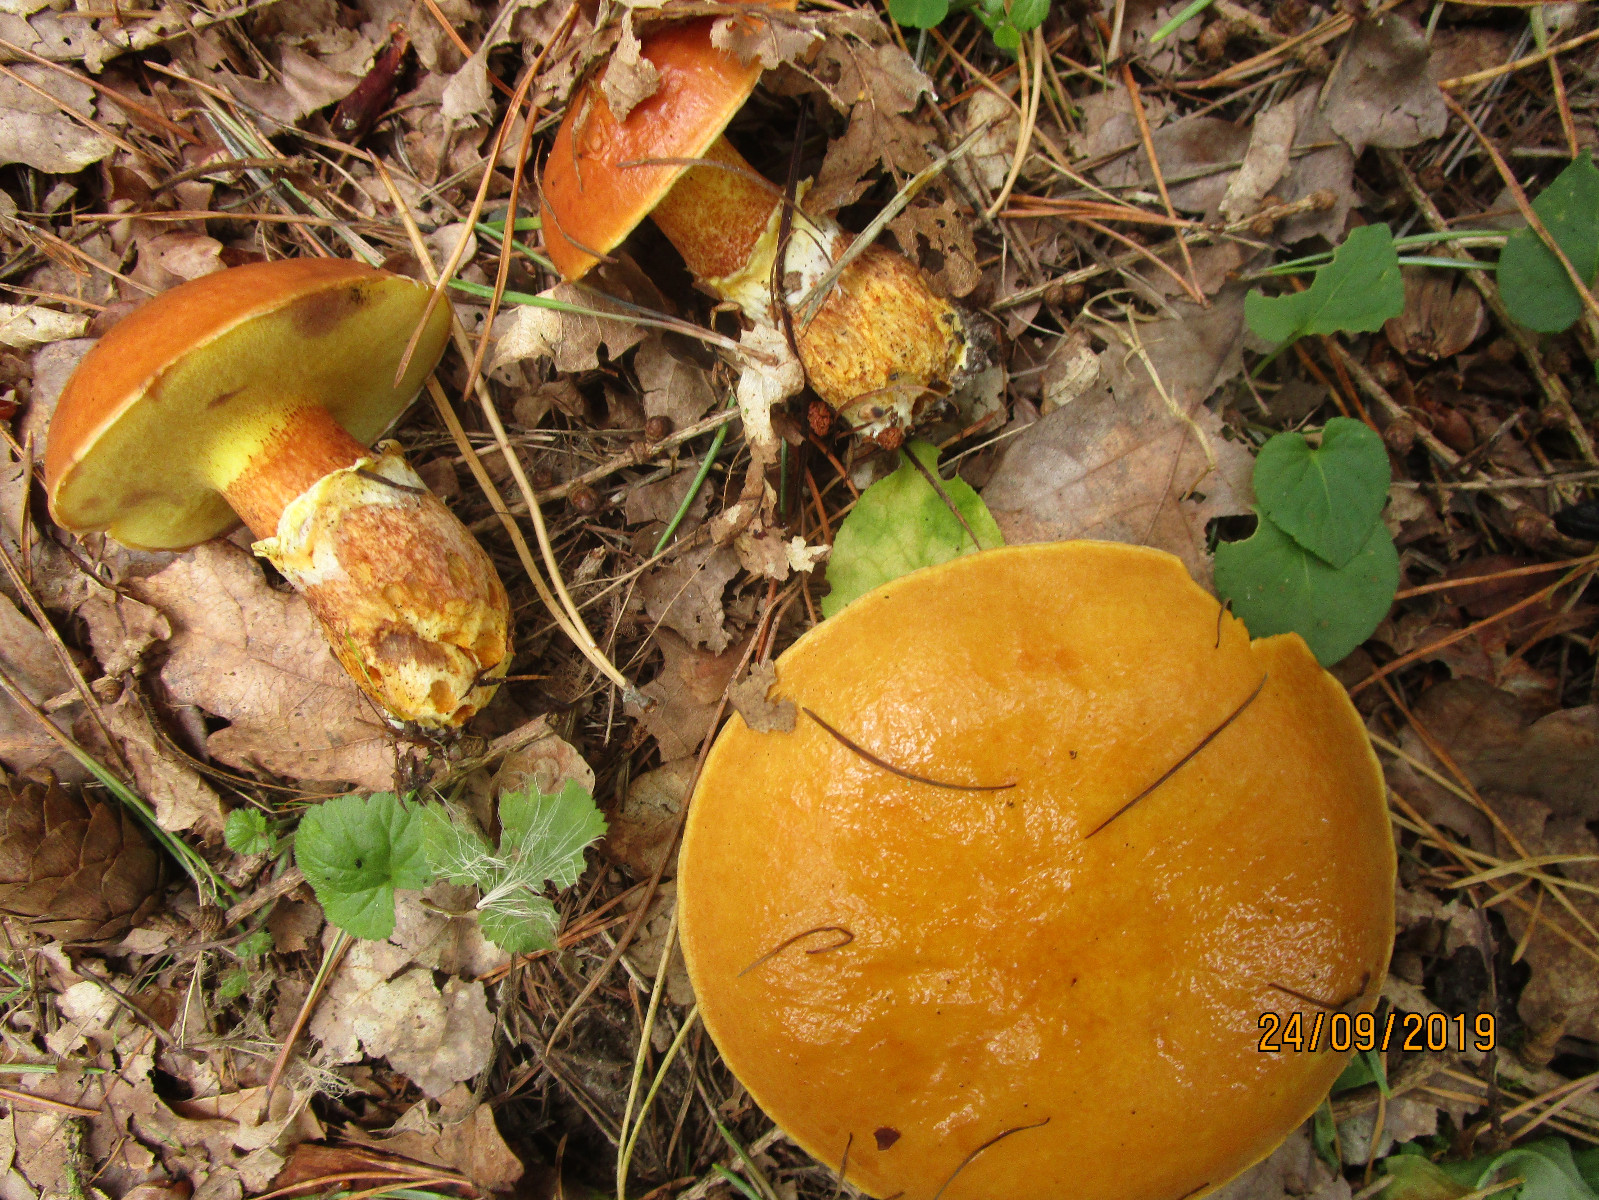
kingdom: Fungi
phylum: Basidiomycota
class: Agaricomycetes
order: Boletales
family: Suillaceae
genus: Suillus
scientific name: Suillus grevillei
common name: lærke-slimrørhat
